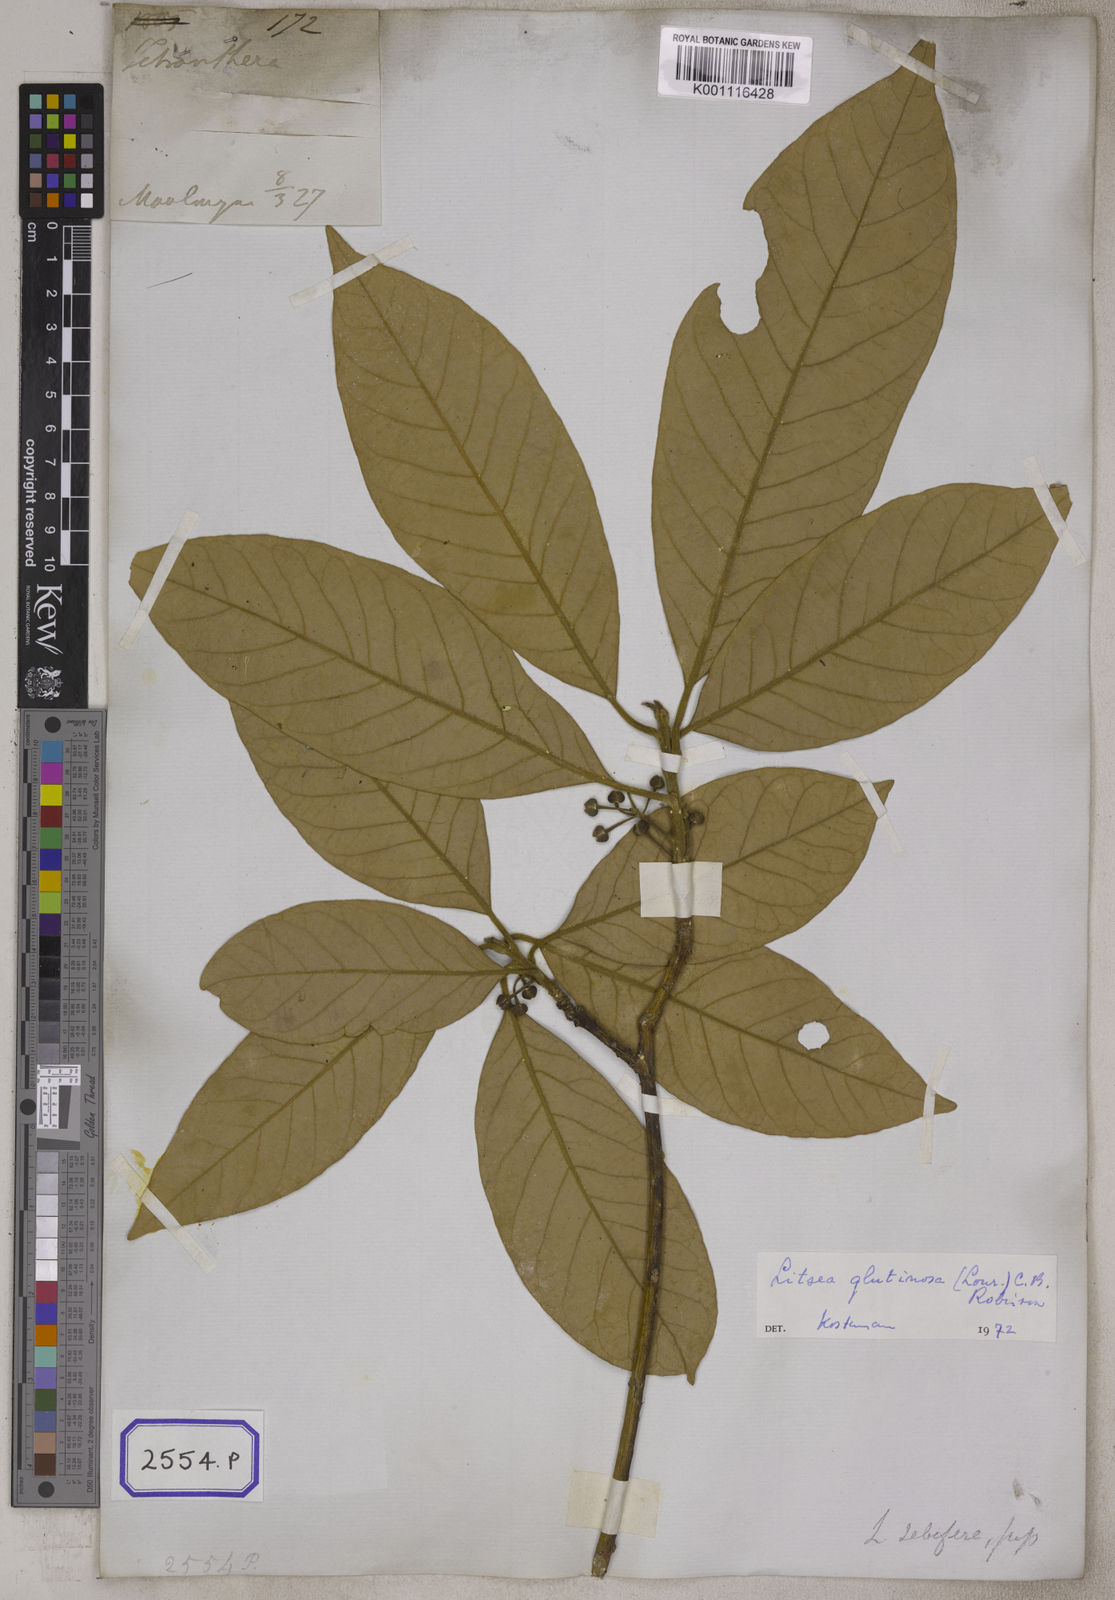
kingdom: Plantae
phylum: Tracheophyta
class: Magnoliopsida
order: Laurales
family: Lauraceae
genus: Litsea
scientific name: Litsea glutinosa
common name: Indian-laurel
